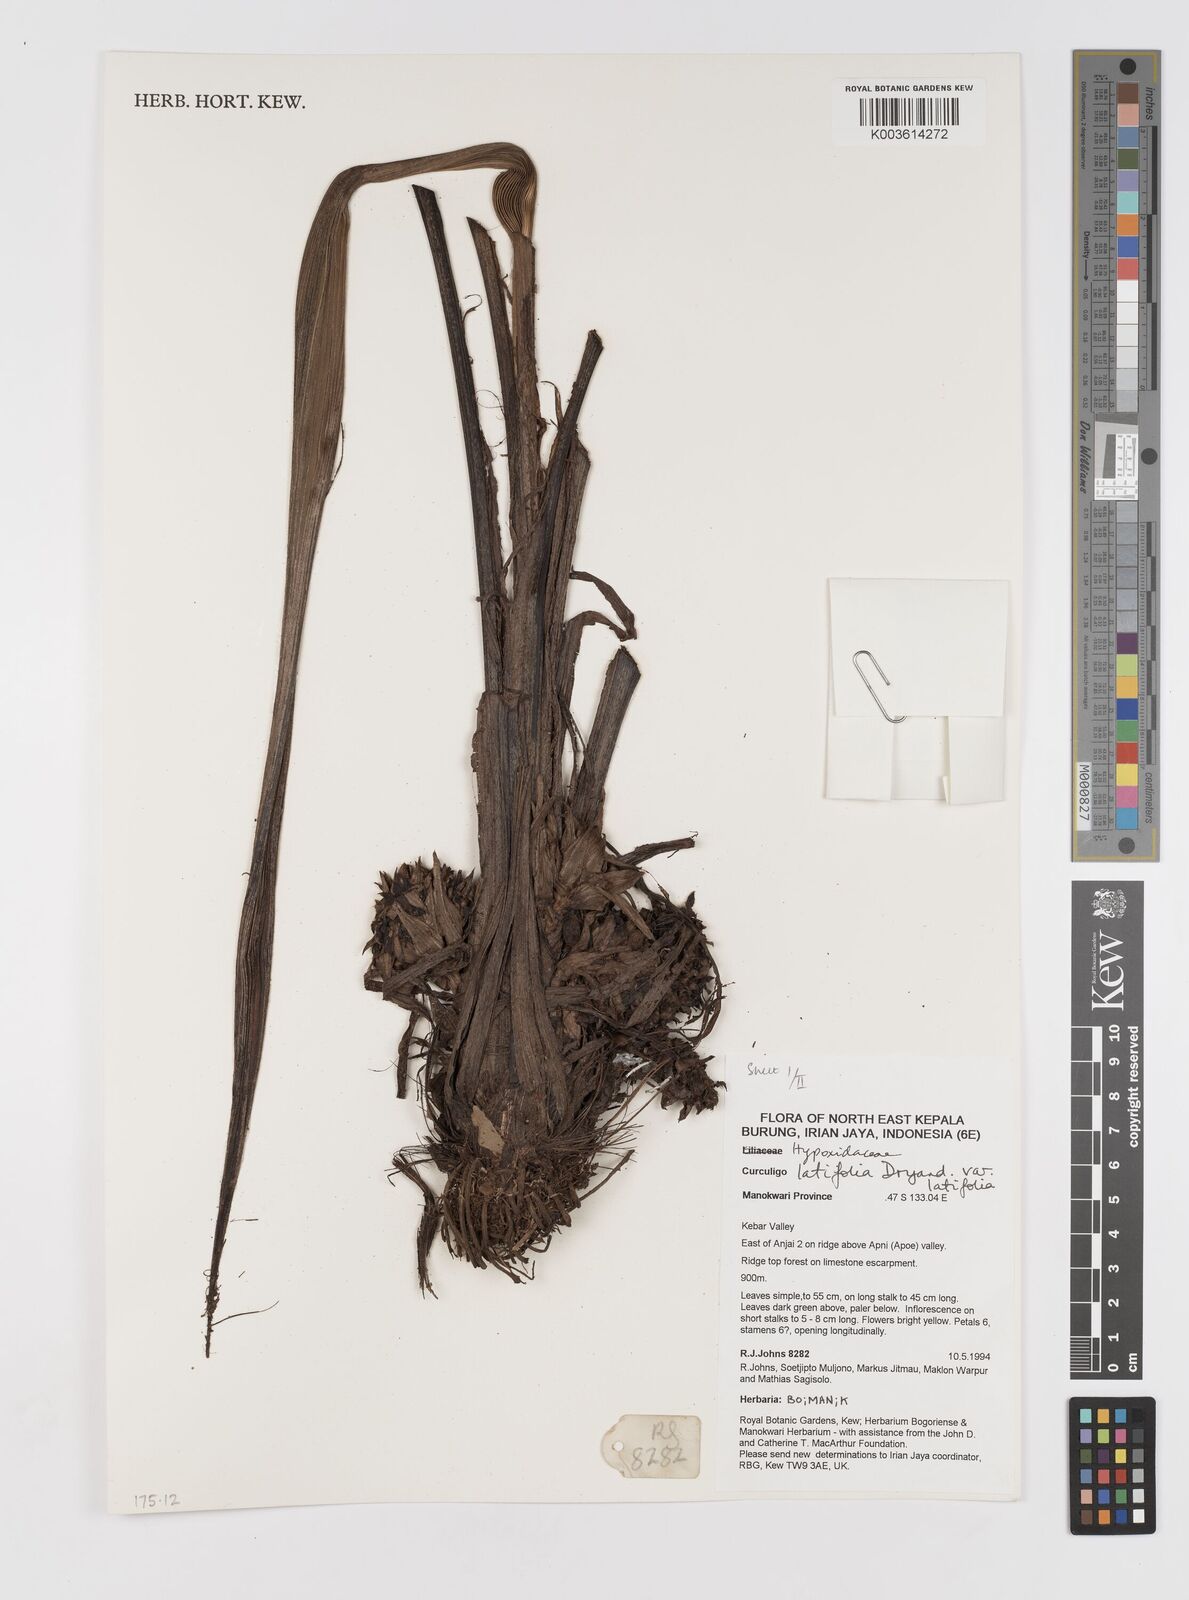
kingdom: Plantae
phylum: Tracheophyta
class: Liliopsida
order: Asparagales
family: Hypoxidaceae
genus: Curculigo
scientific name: Curculigo latifolia
